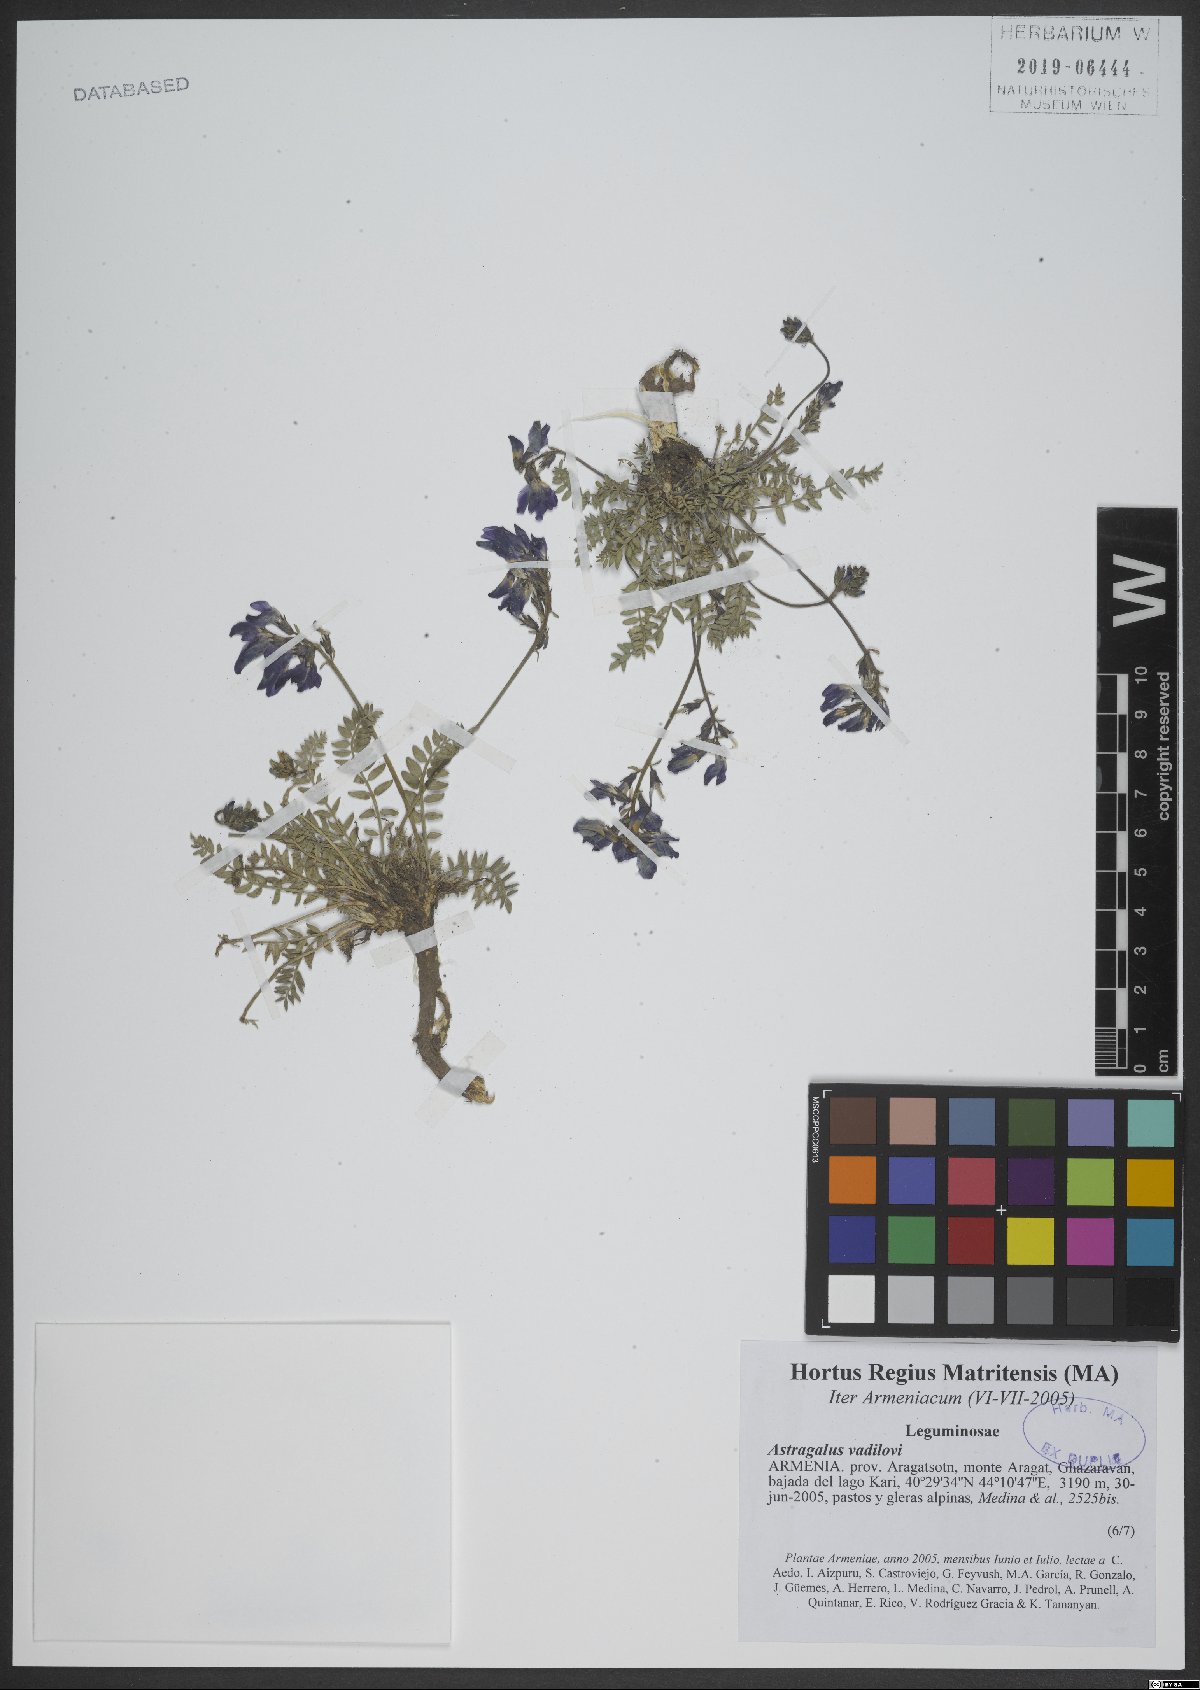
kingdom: Plantae
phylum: Tracheophyta
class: Magnoliopsida
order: Fabales
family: Fabaceae
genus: Astragalus
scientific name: Astragalus vavilovii
